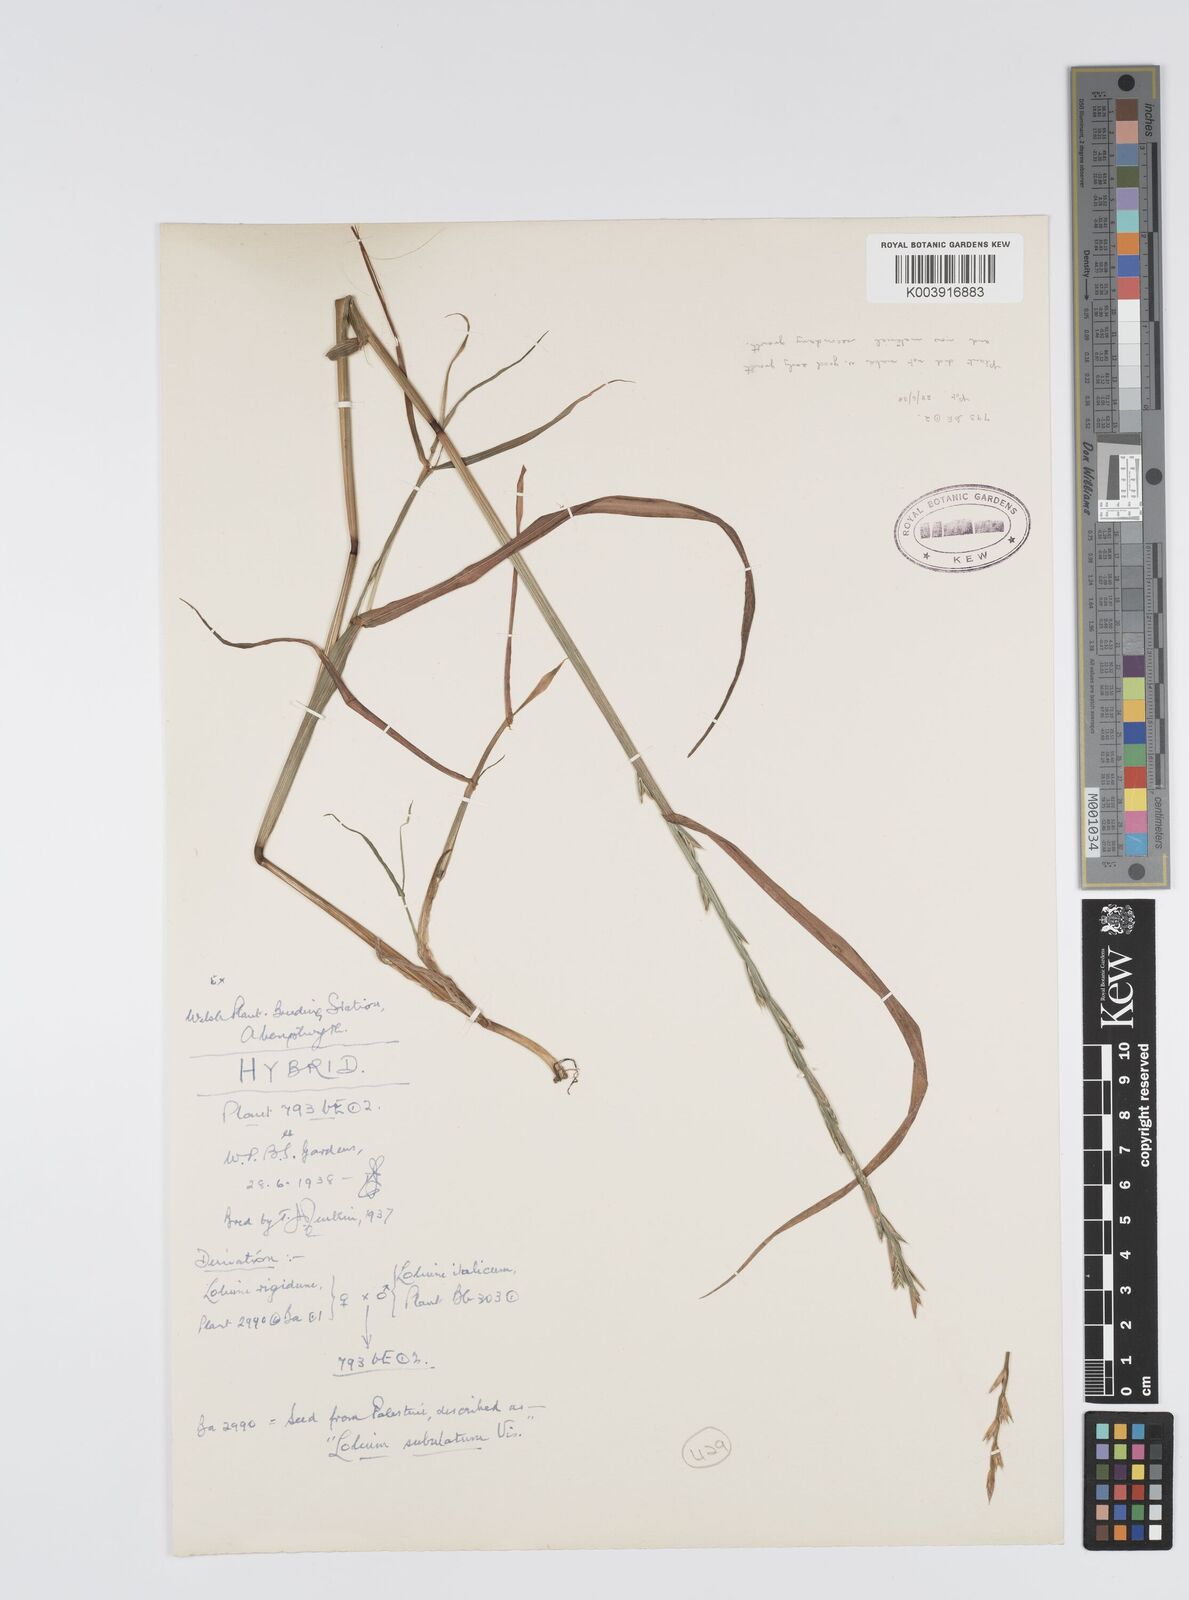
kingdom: Plantae
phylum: Tracheophyta
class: Liliopsida
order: Poales
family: Poaceae
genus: Lolium
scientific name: Lolium multiflorum
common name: Annual ryegrass
